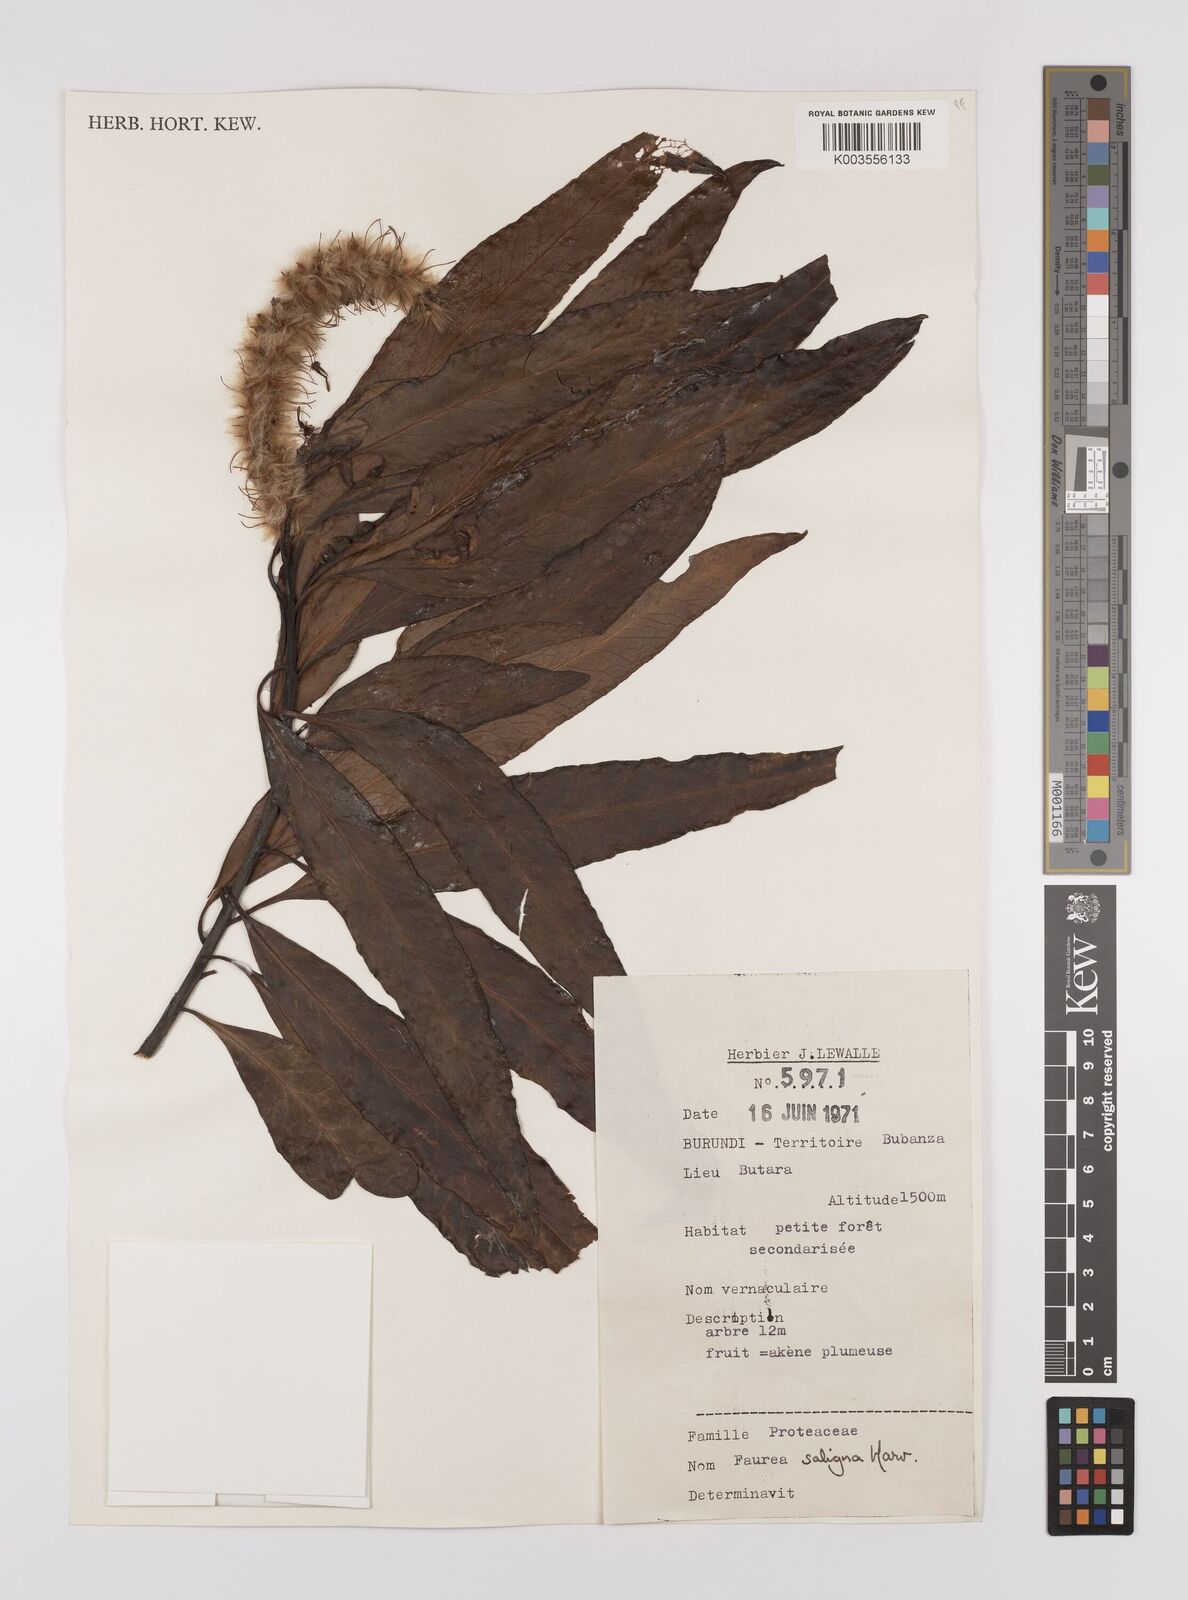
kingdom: Plantae
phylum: Tracheophyta
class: Magnoliopsida
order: Proteales
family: Proteaceae
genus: Faurea
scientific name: Faurea saligna
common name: African bean
